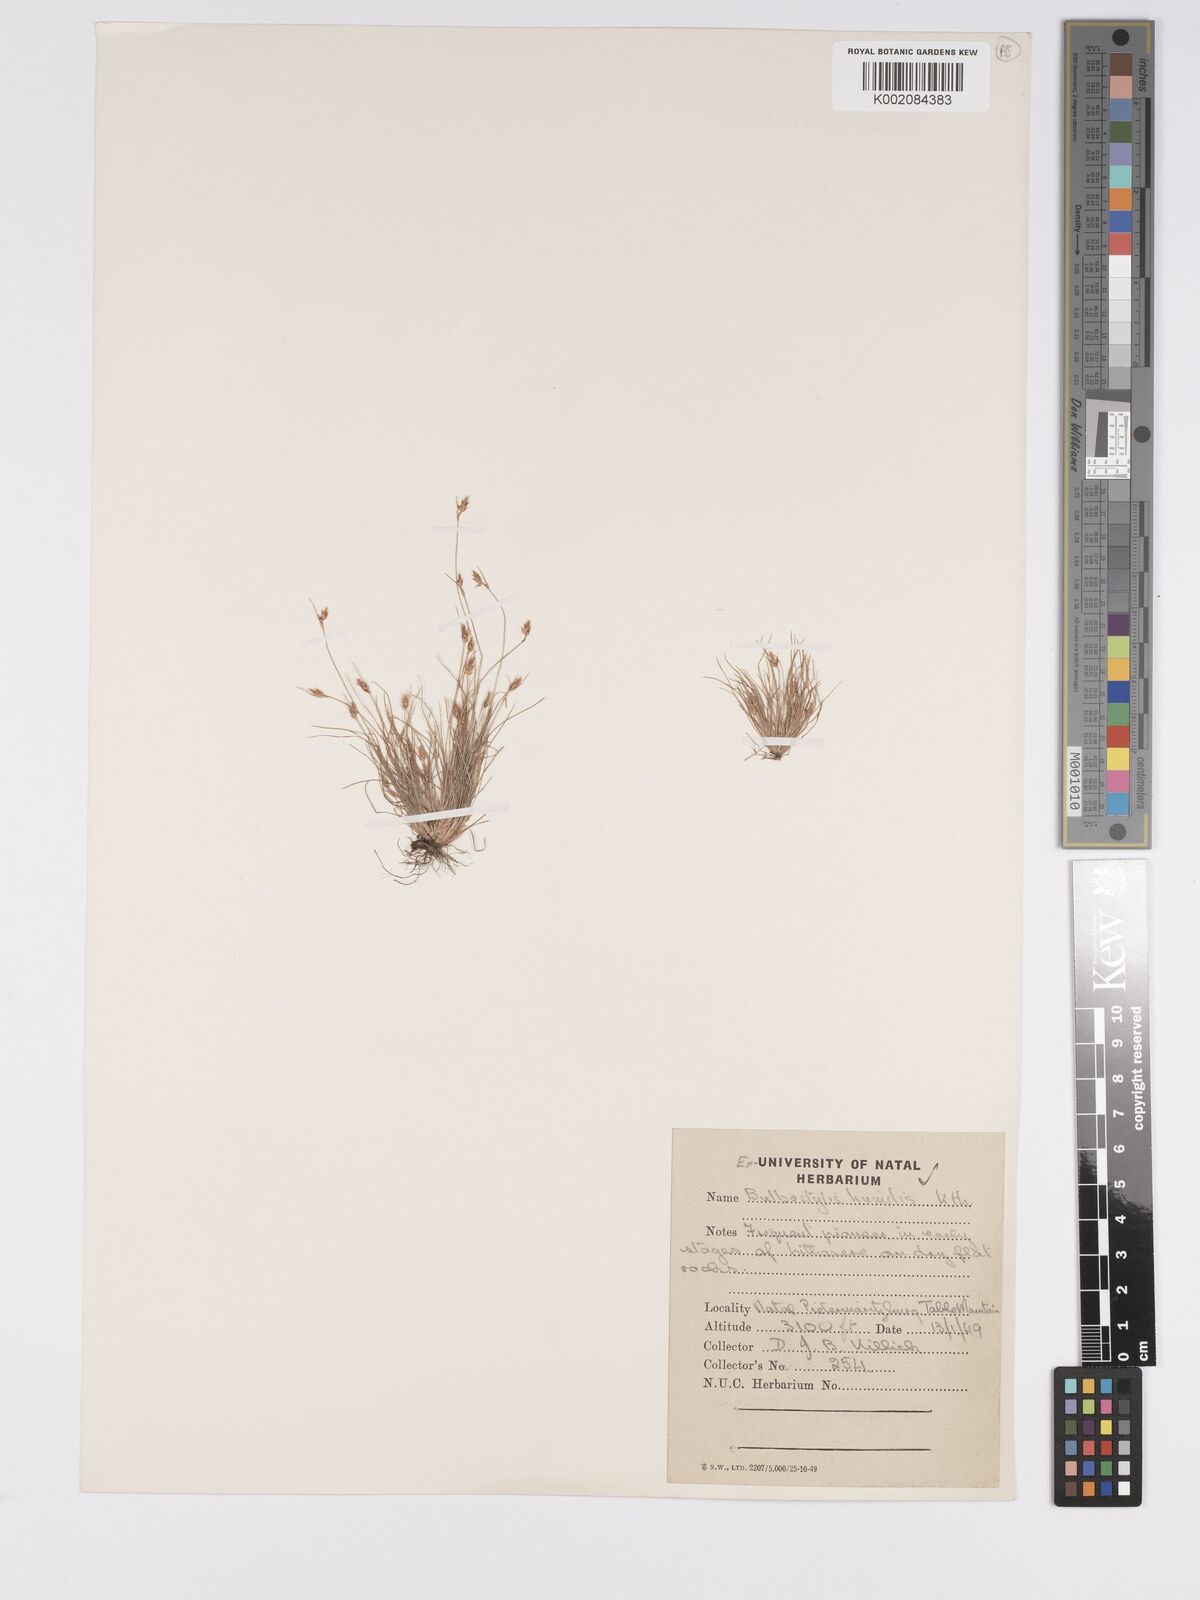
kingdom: Plantae
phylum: Tracheophyta
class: Liliopsida
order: Poales
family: Cyperaceae
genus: Bulbostylis
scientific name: Bulbostylis humilis
